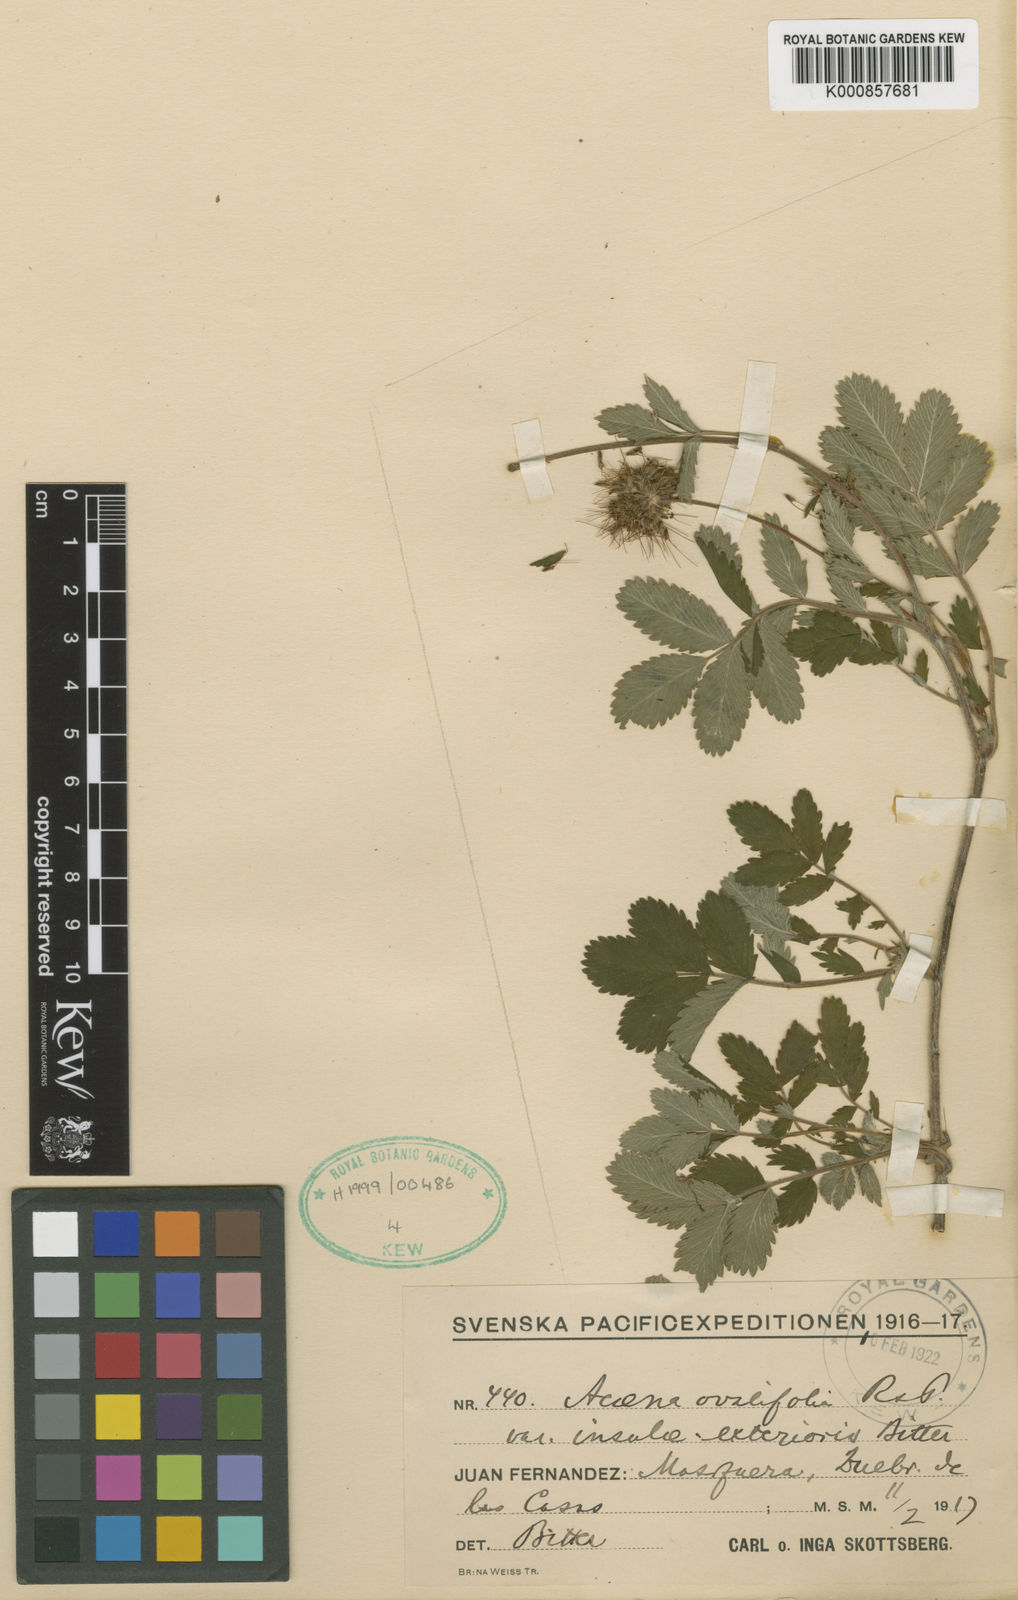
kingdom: Plantae
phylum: Tracheophyta
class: Magnoliopsida
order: Rosales
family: Rosaceae
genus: Acaena
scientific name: Acaena ovalifolia
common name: Two-spined acaena
